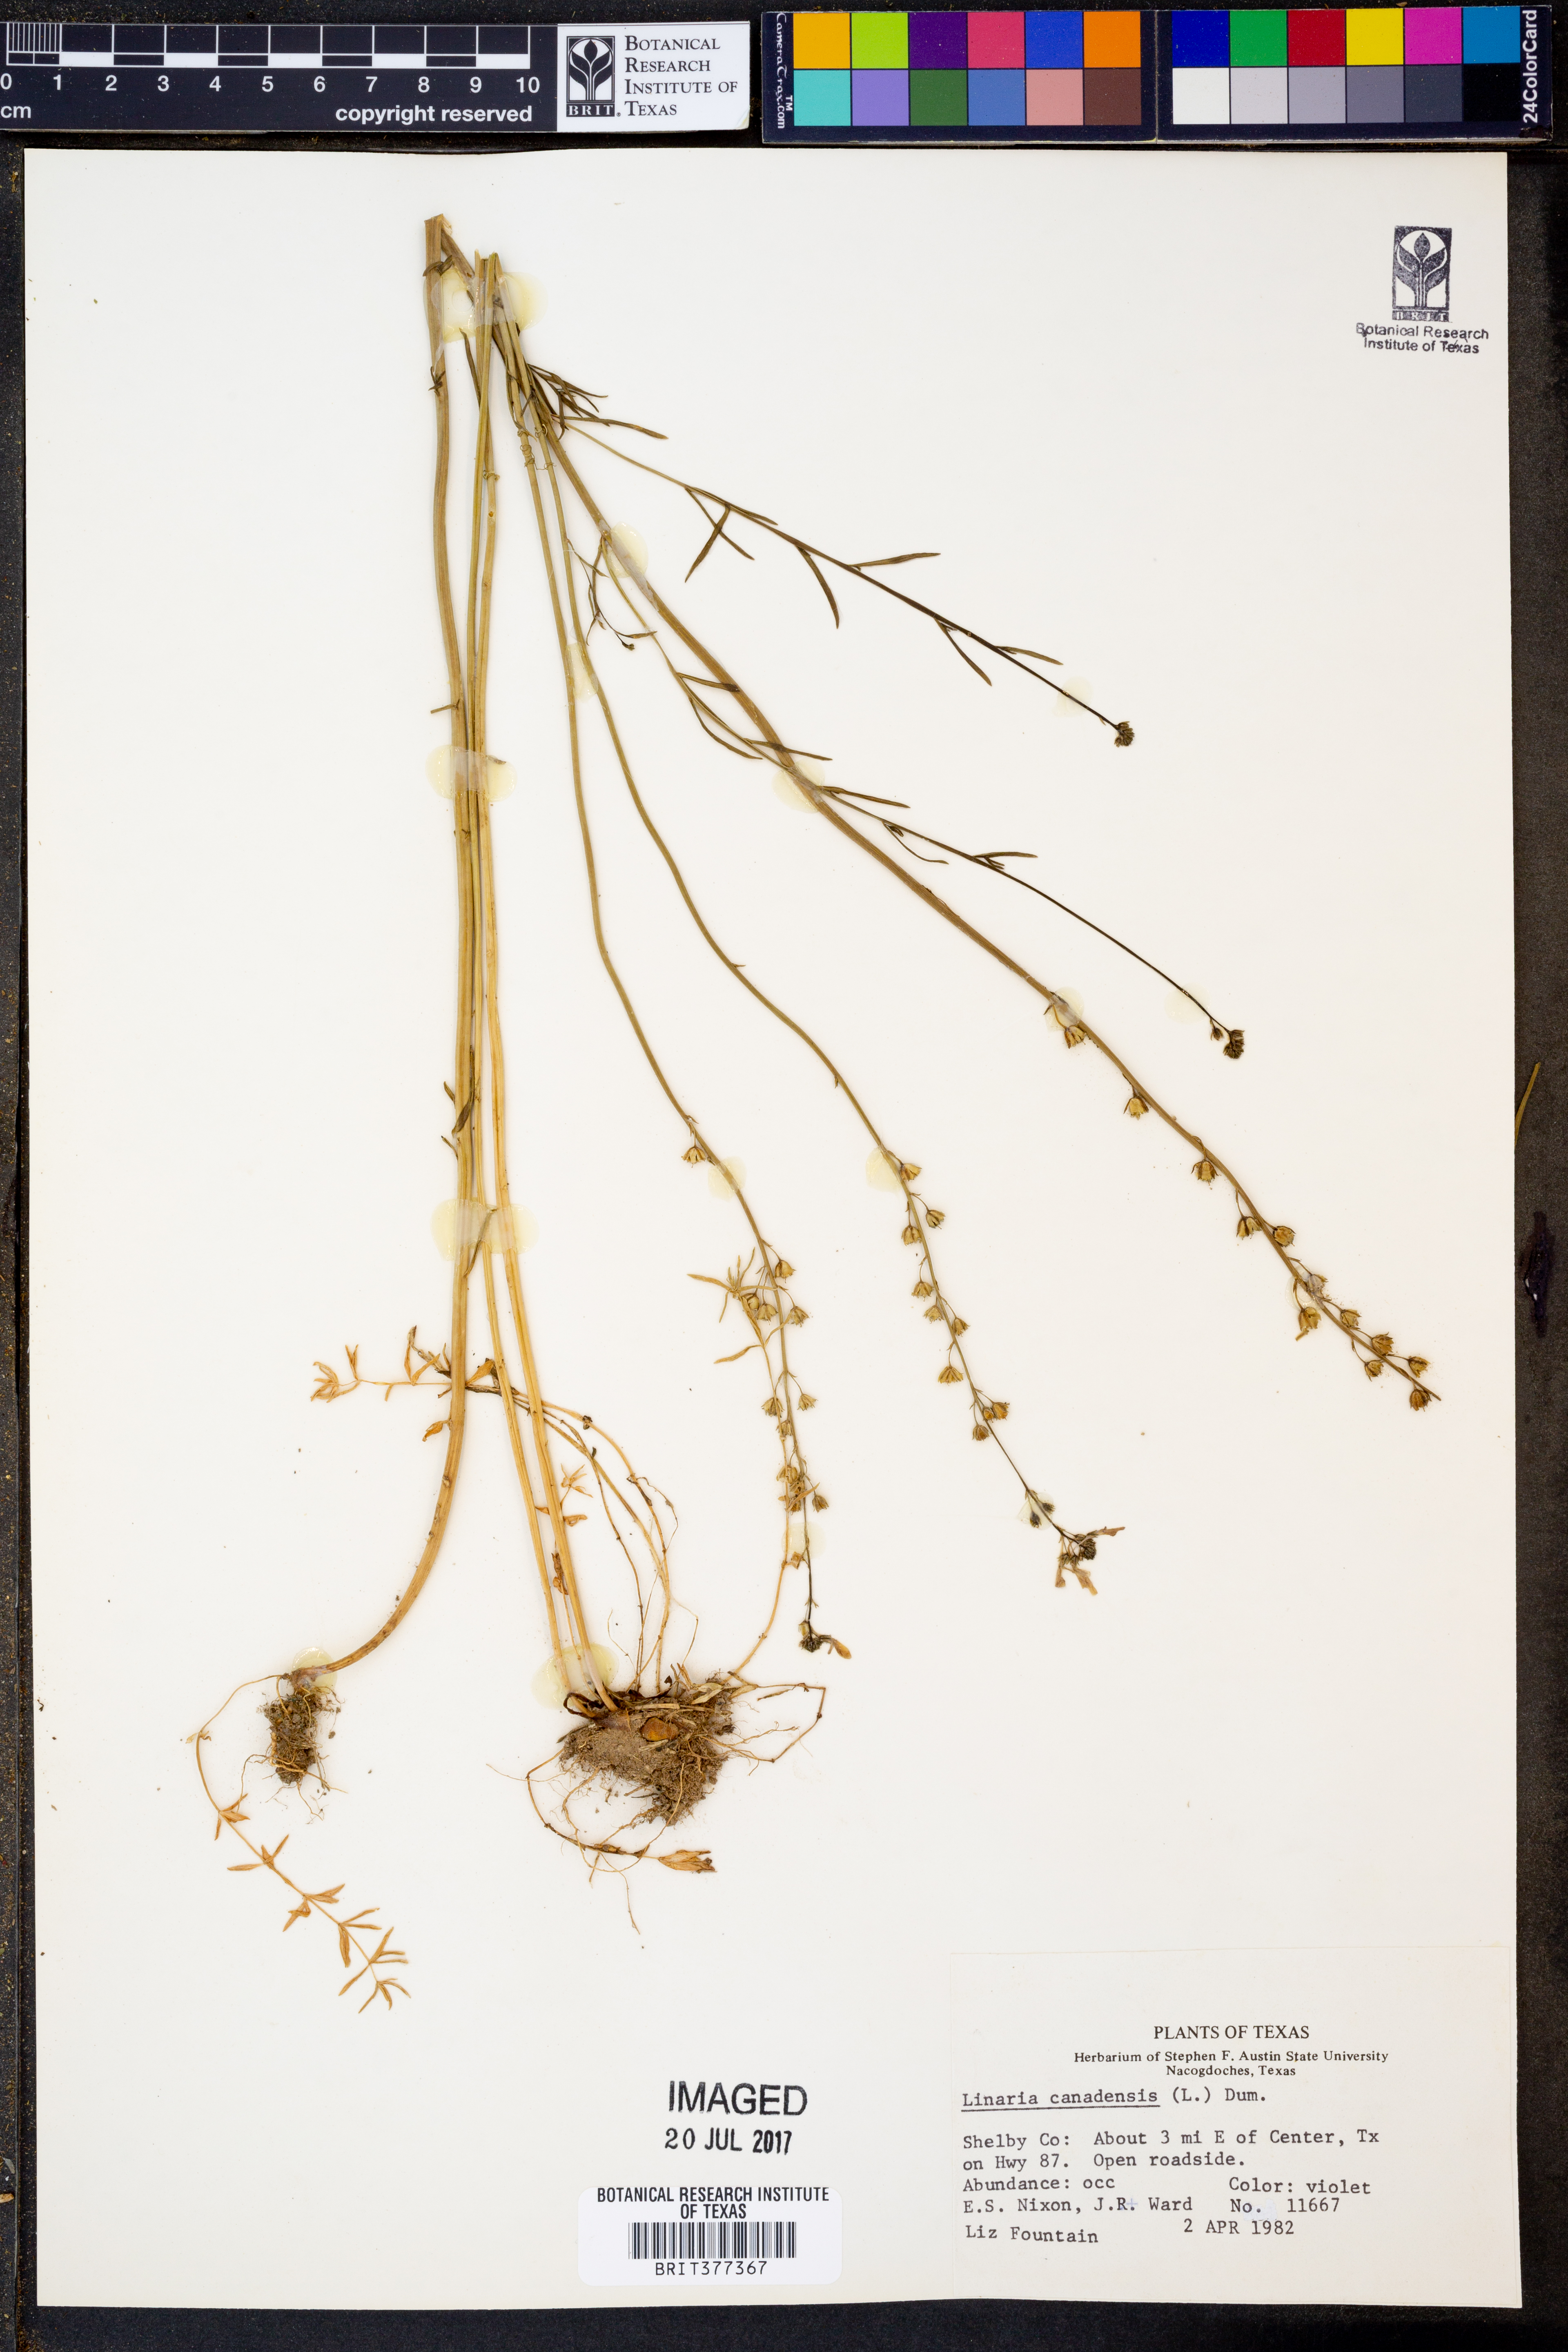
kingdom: Plantae
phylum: Tracheophyta
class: Magnoliopsida
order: Lamiales
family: Plantaginaceae
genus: Nuttallanthus
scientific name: Nuttallanthus canadensis
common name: Blue toadflax
